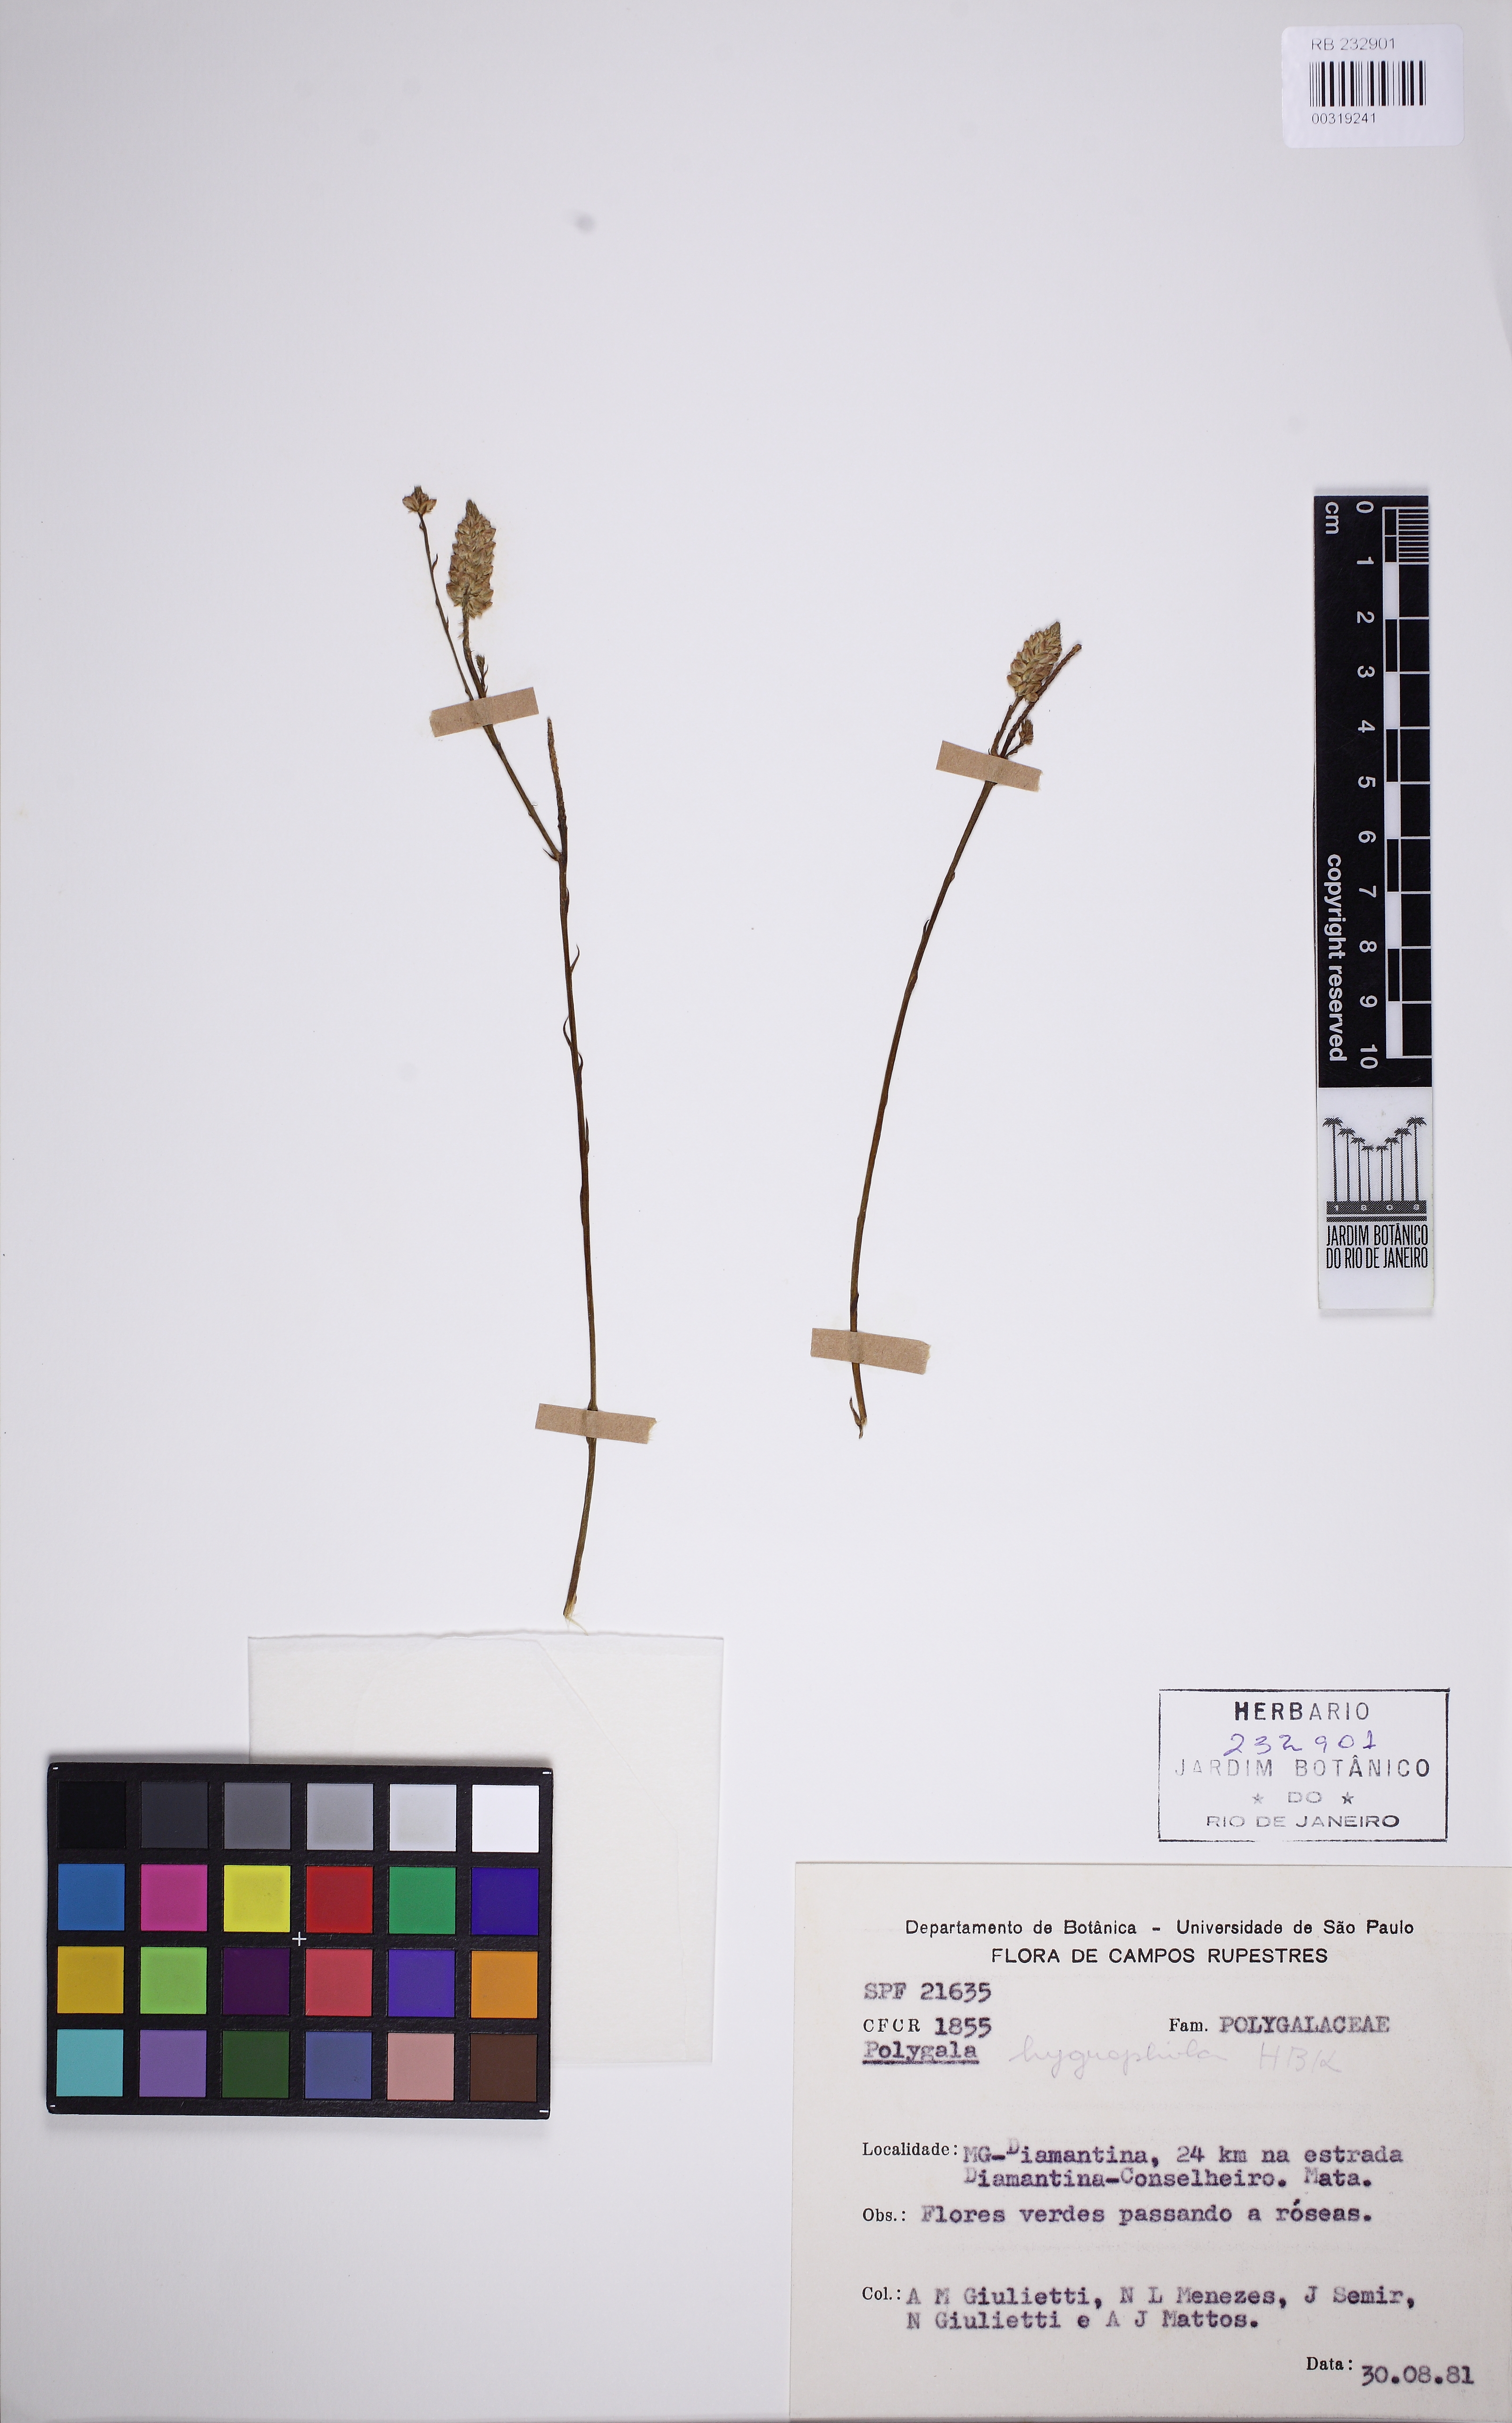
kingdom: Plantae
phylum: Tracheophyta
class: Magnoliopsida
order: Fabales
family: Polygalaceae
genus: Polygala
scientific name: Polygala hygrophila
